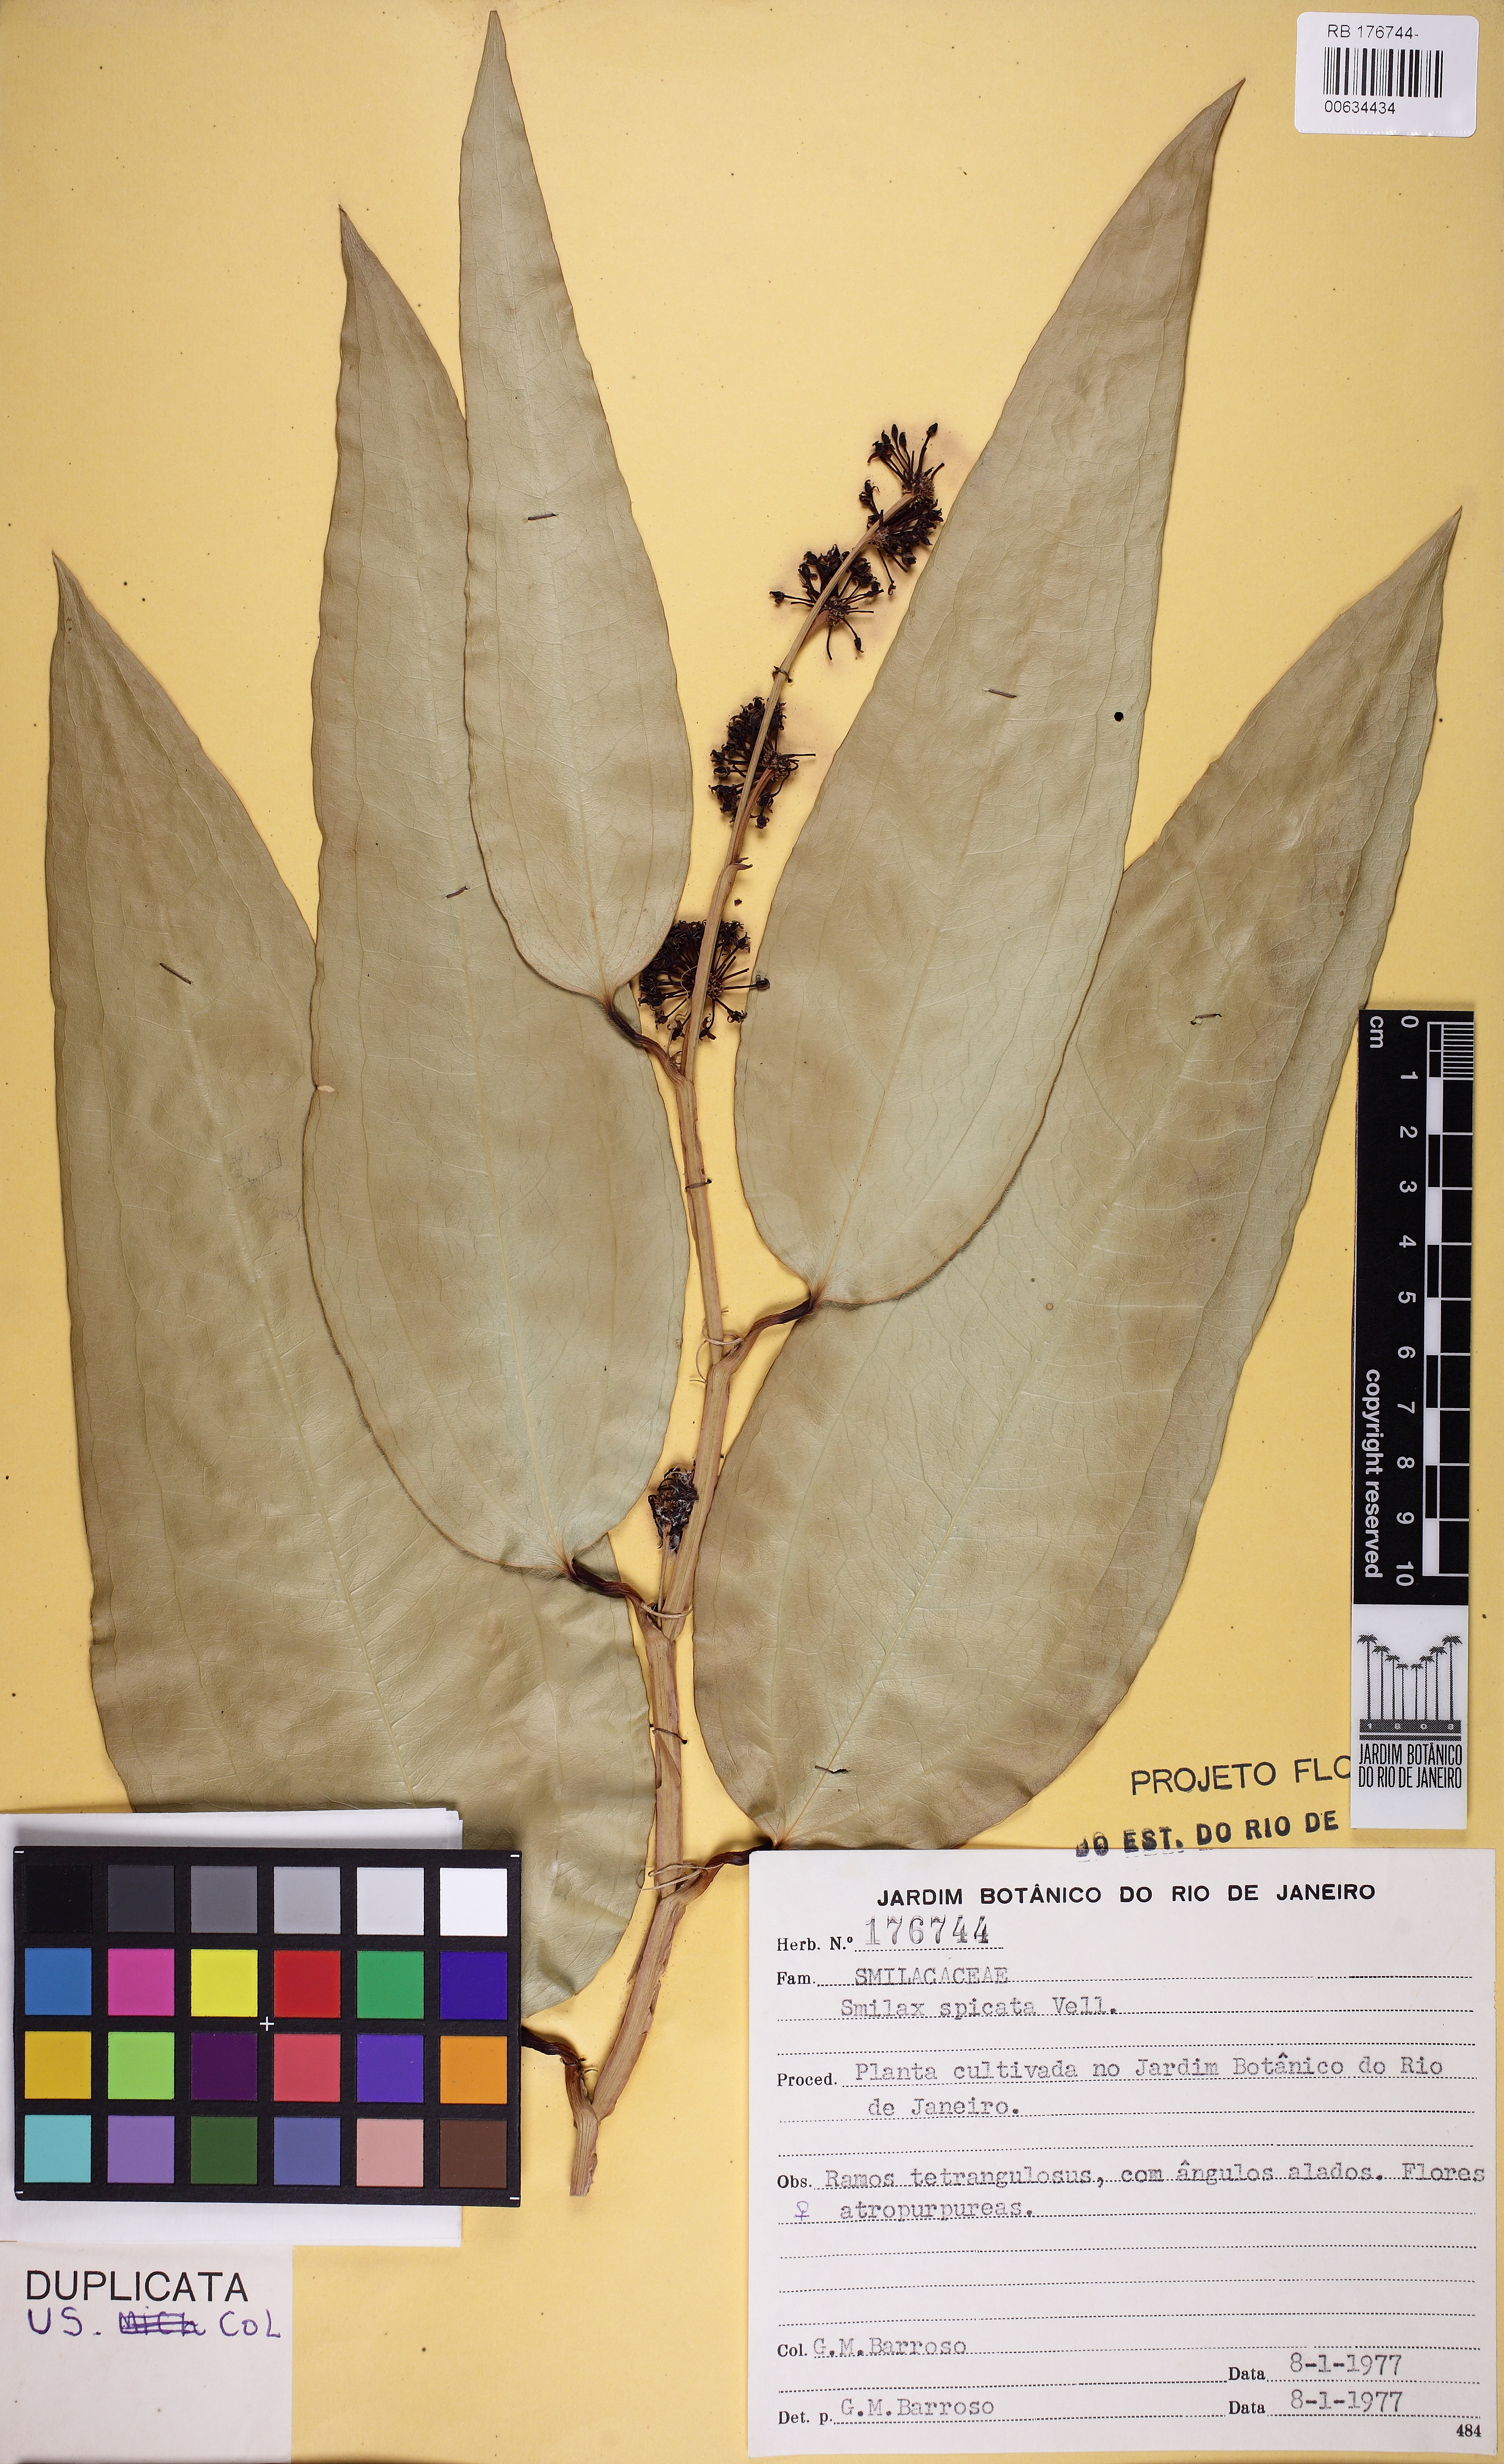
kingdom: Plantae
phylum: Tracheophyta
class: Liliopsida
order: Liliales
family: Smilacaceae
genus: Smilax
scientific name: Smilax spicata
